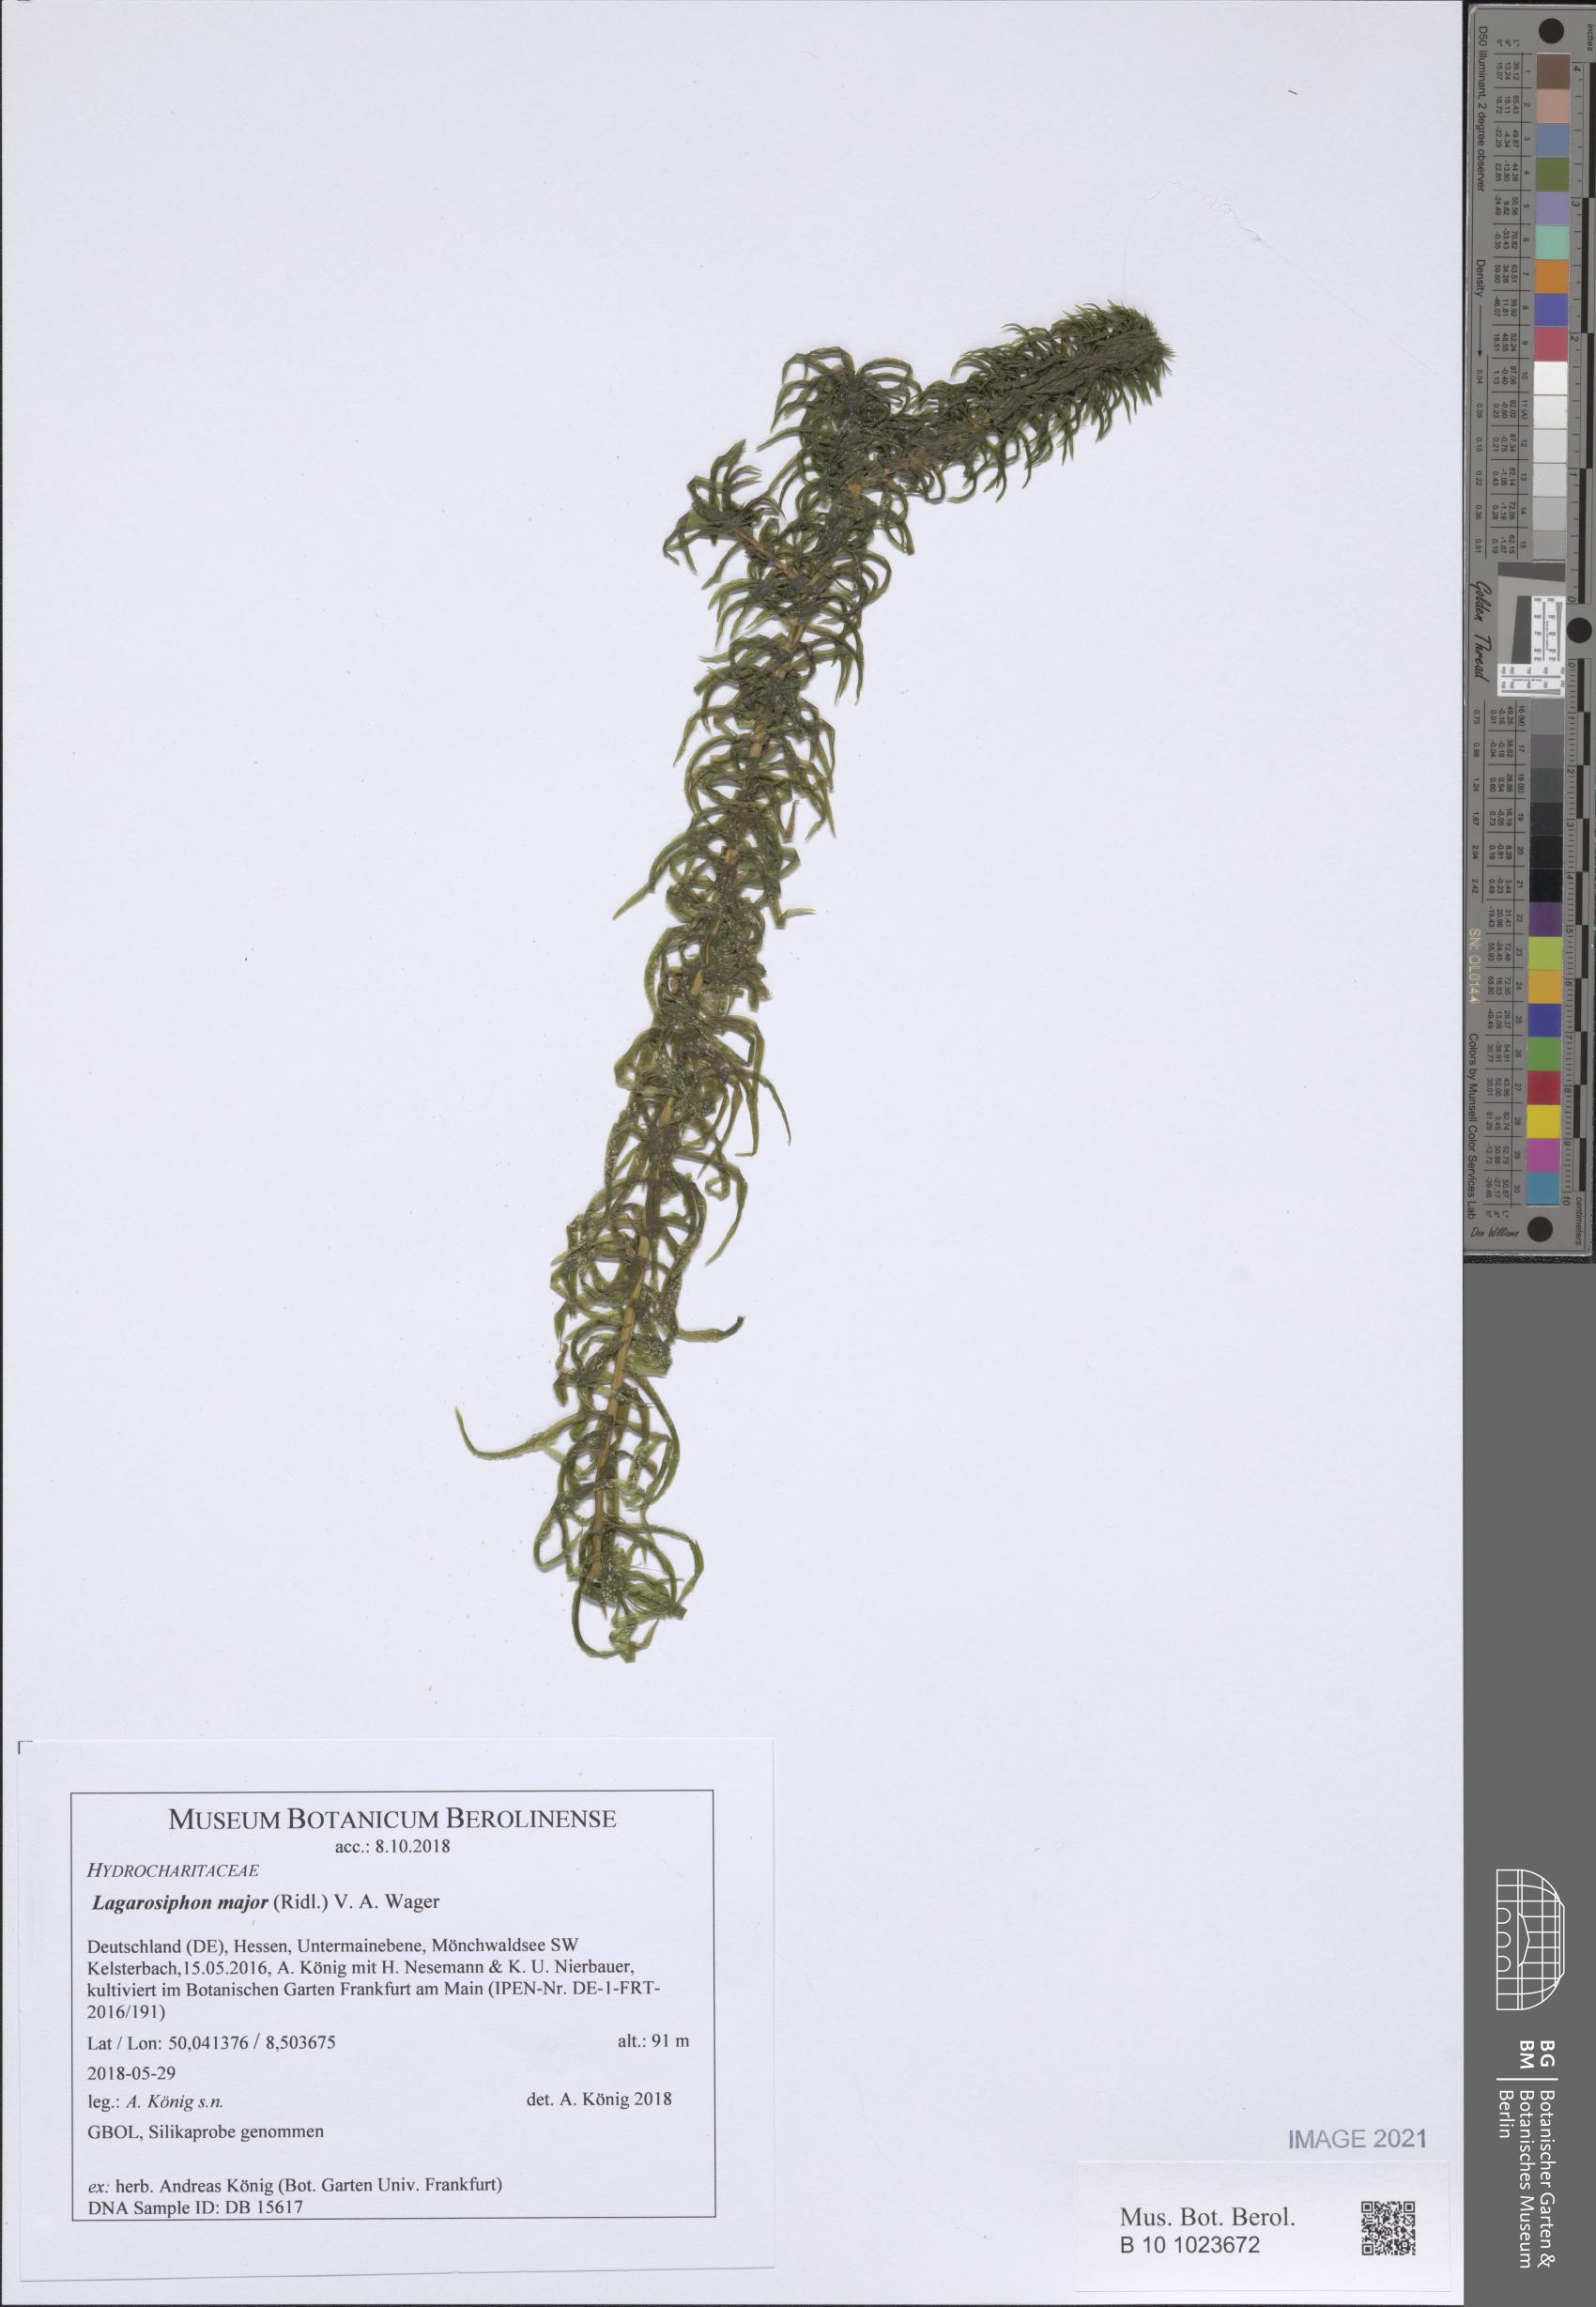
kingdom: Plantae
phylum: Tracheophyta
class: Liliopsida
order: Alismatales
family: Hydrocharitaceae
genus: Lagarosiphon
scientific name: Lagarosiphon major
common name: Curly waterweed
